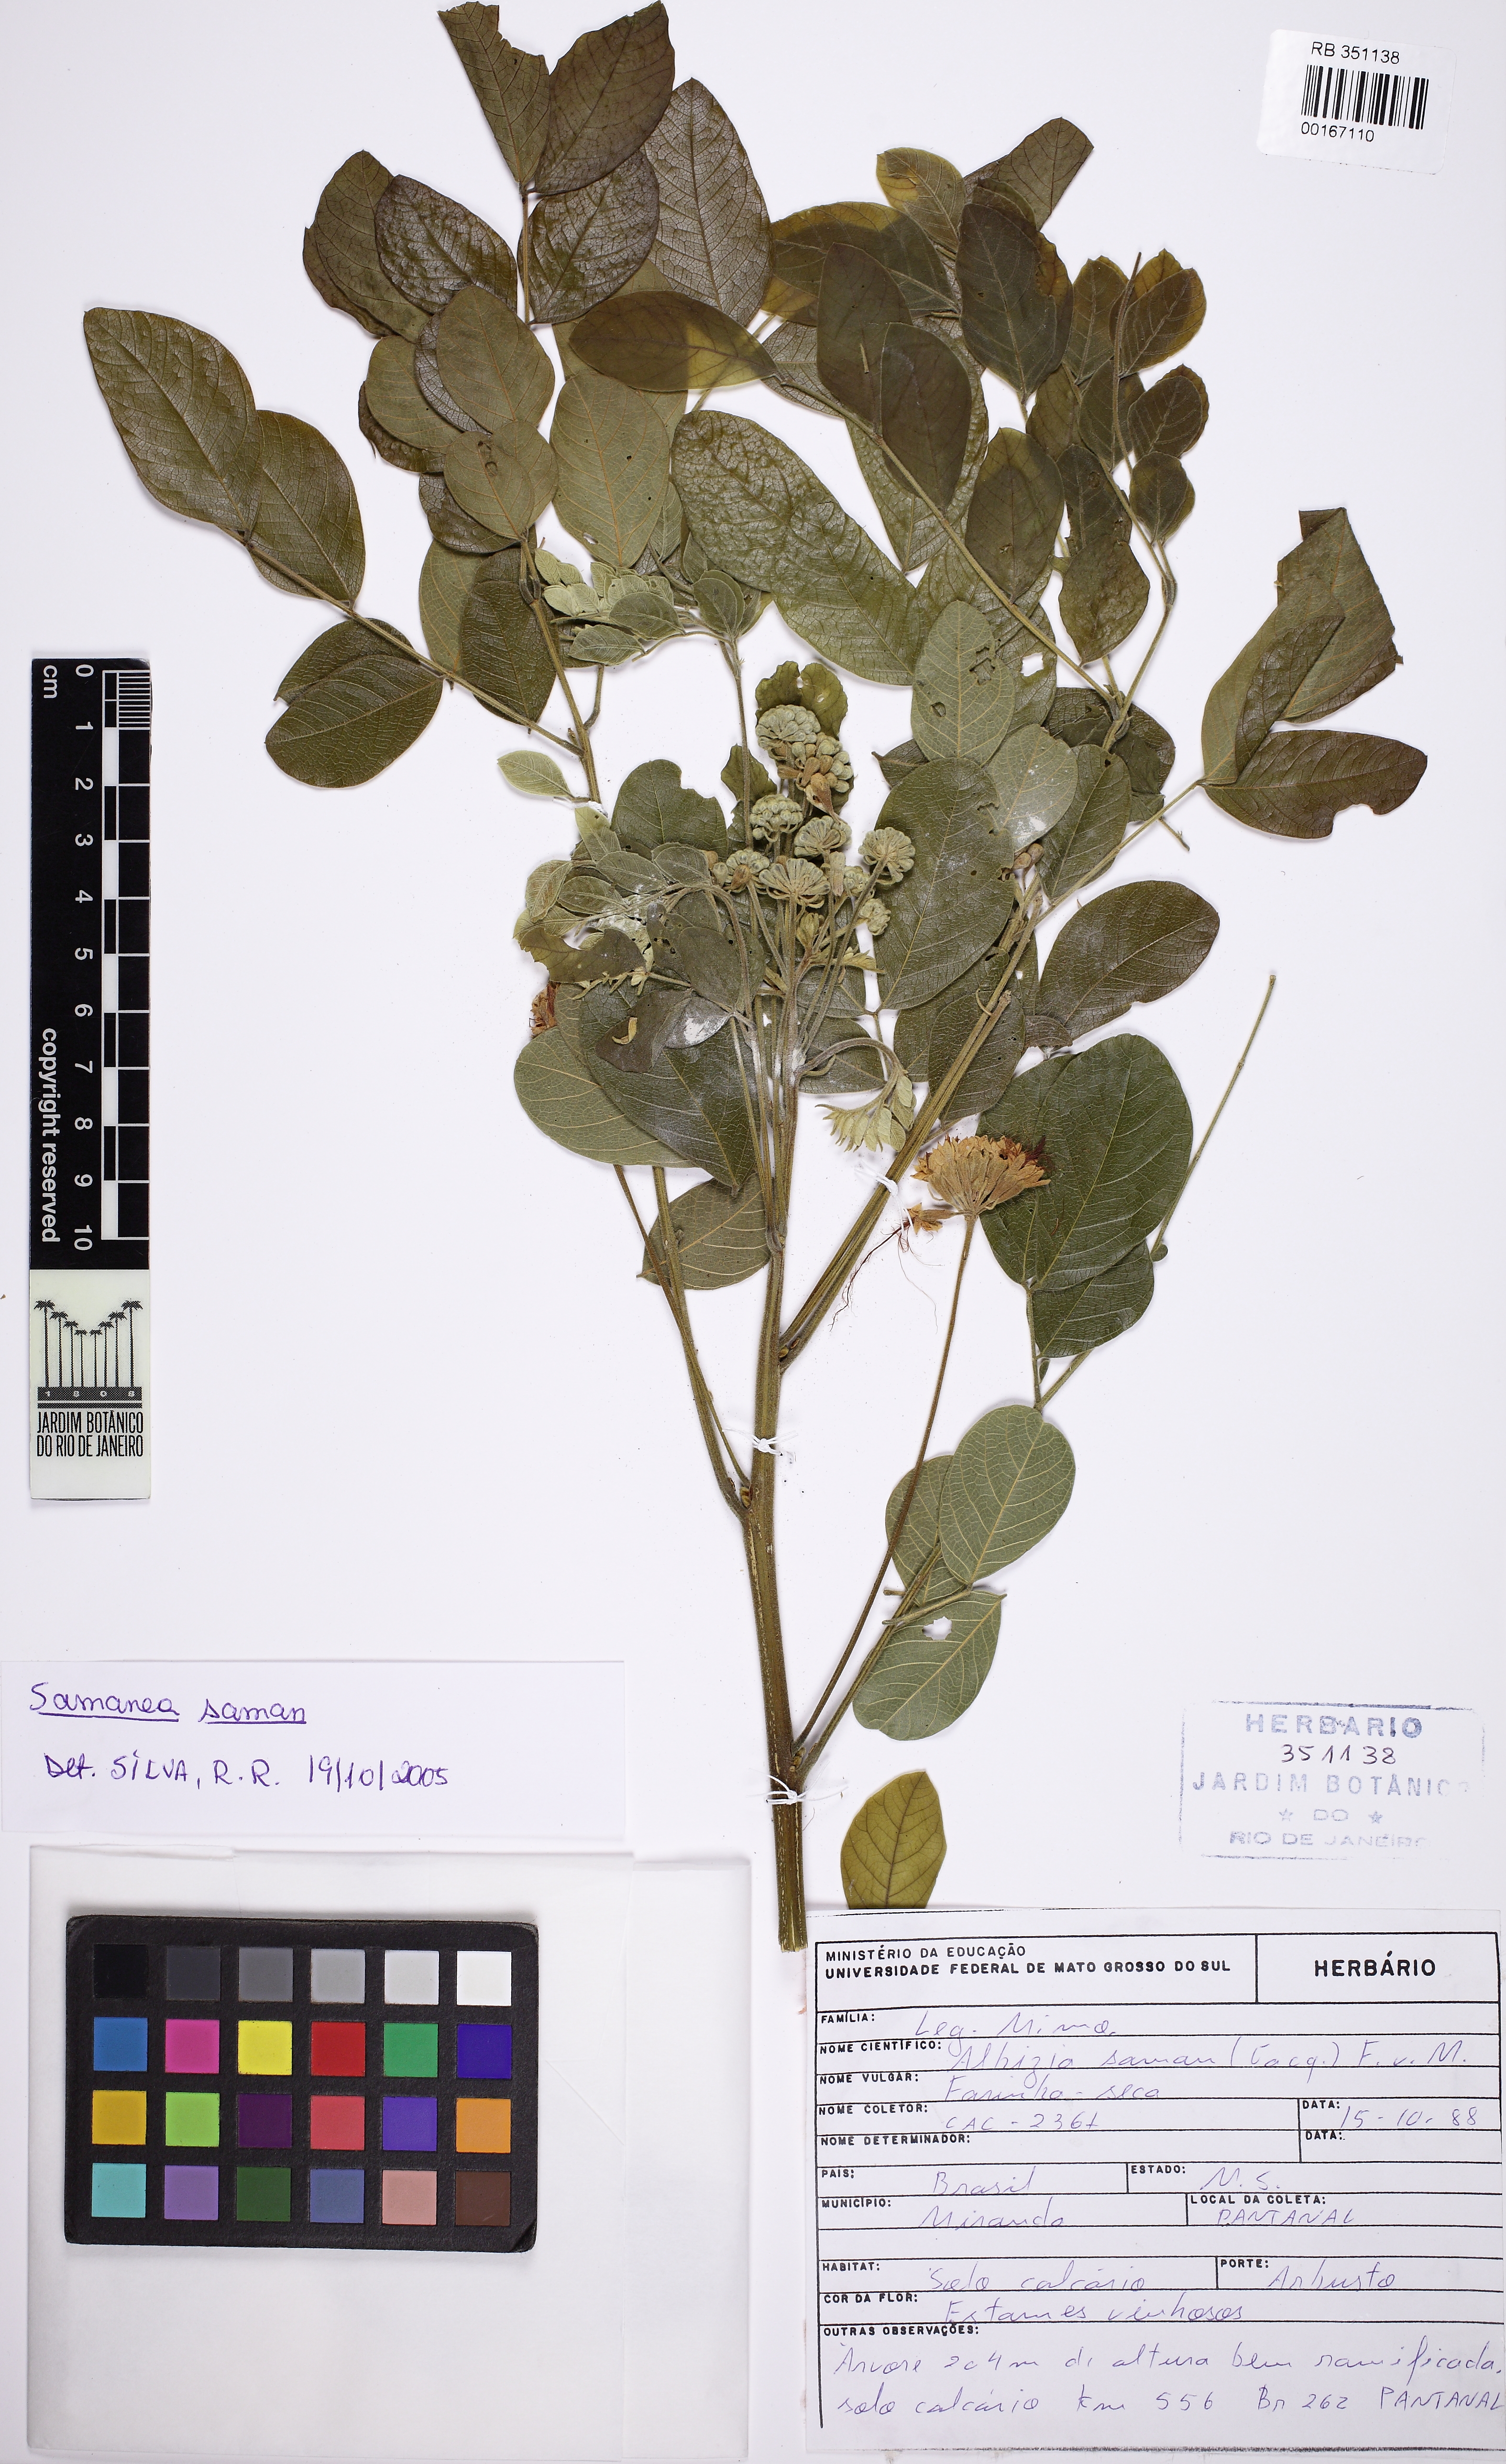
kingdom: Plantae
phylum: Tracheophyta
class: Magnoliopsida
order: Fabales
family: Fabaceae
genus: Samanea
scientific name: Samanea saman
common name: Raintree
